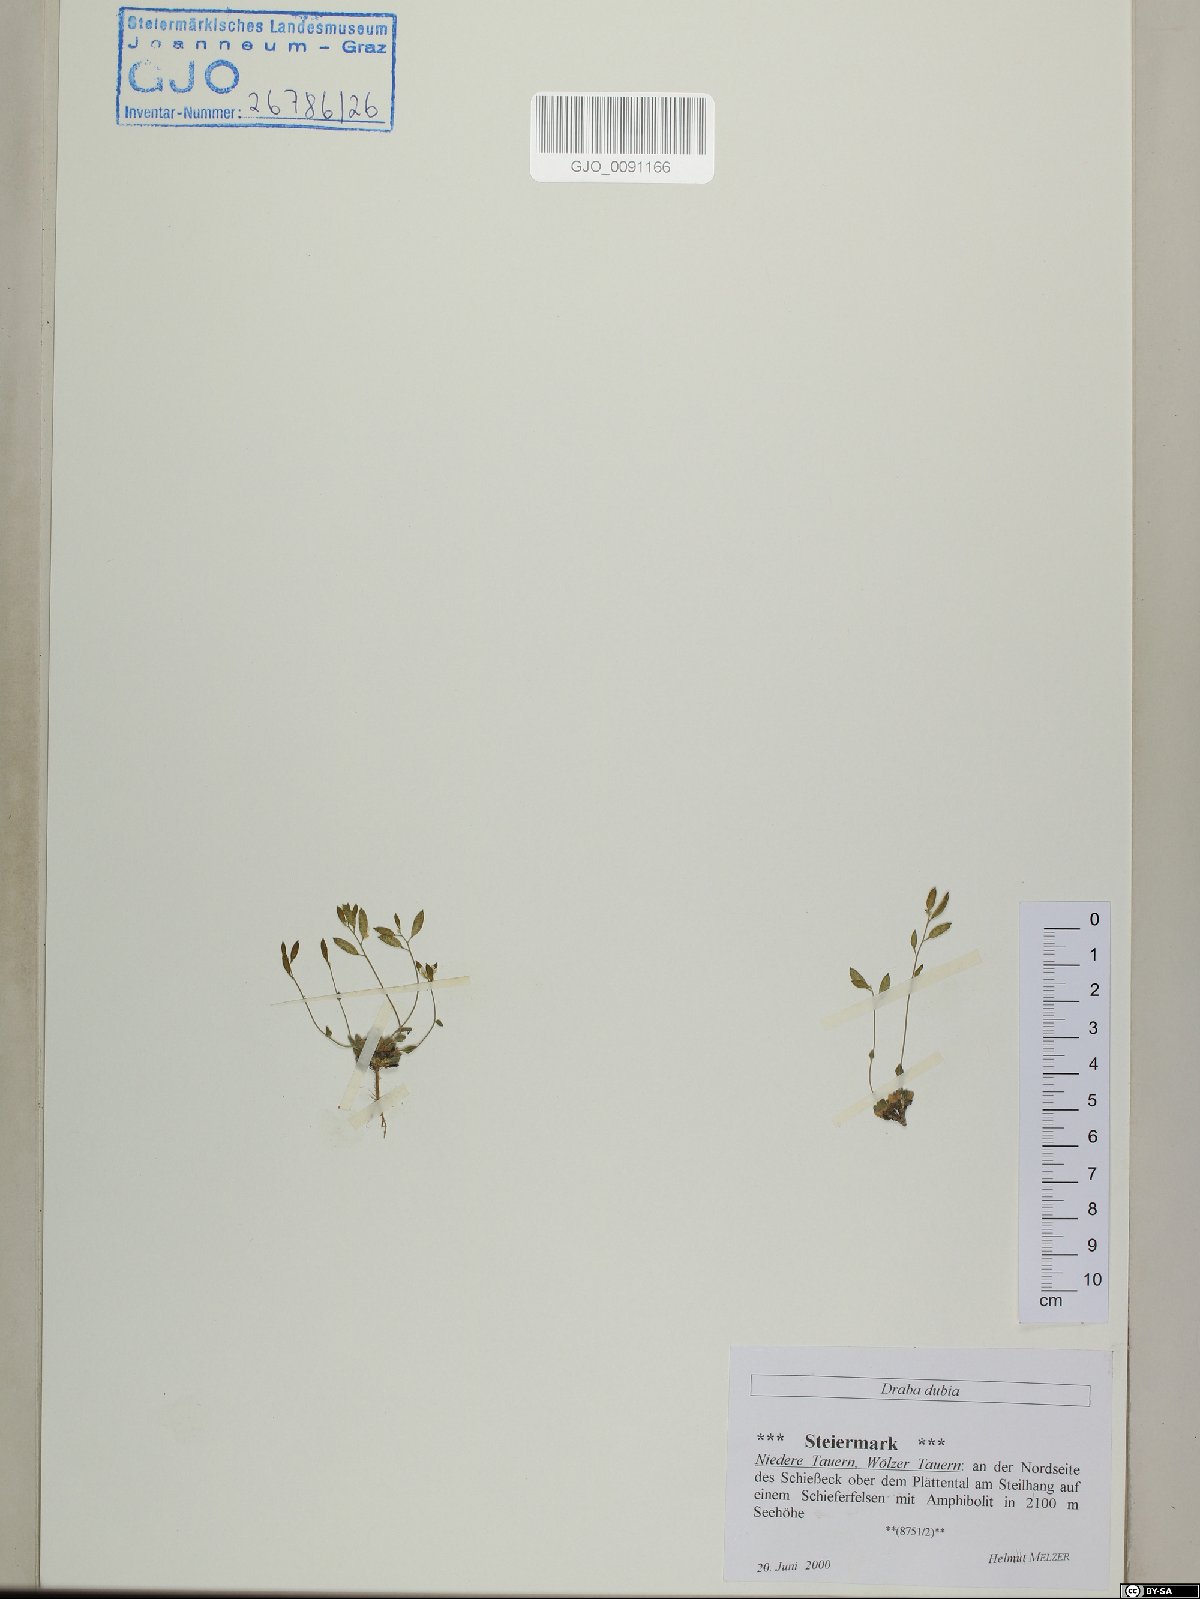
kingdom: Plantae
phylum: Tracheophyta
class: Magnoliopsida
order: Brassicales
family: Brassicaceae
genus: Draba
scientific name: Draba dubia
